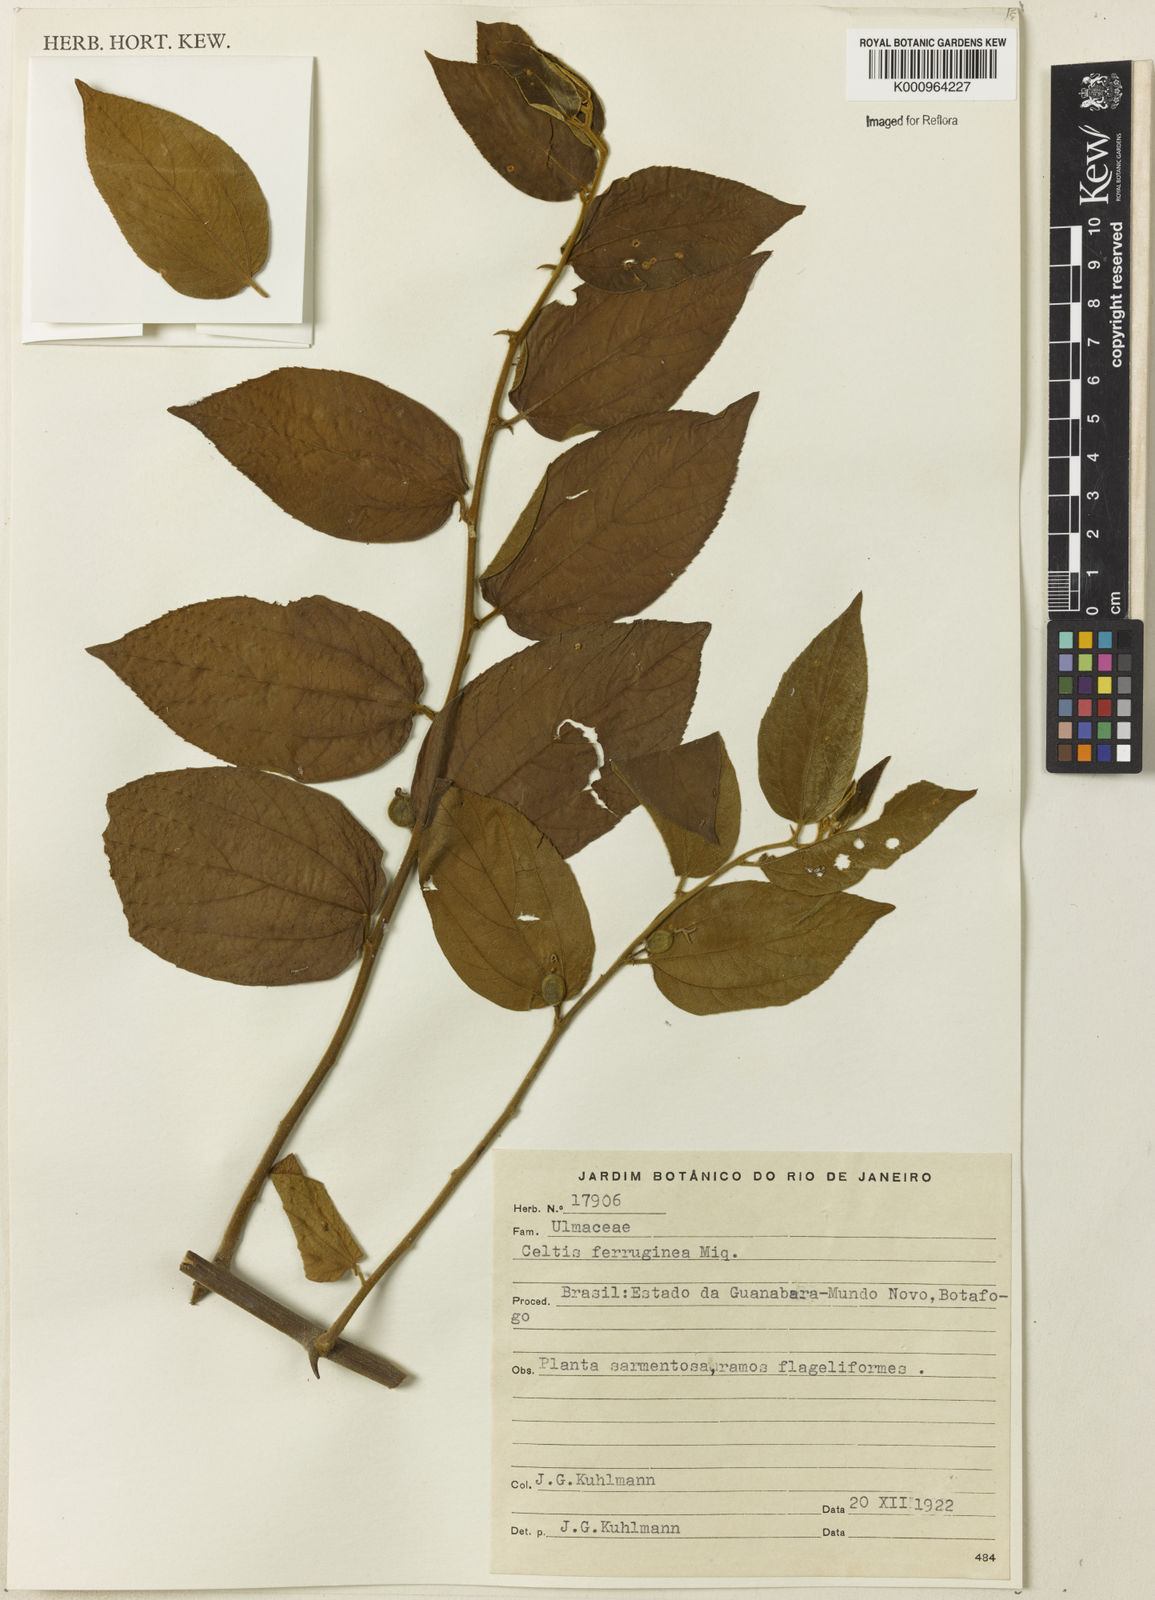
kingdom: Plantae
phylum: Tracheophyta
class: Magnoliopsida
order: Rosales
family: Cannabaceae
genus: Celtis
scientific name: Celtis brasiliensis
